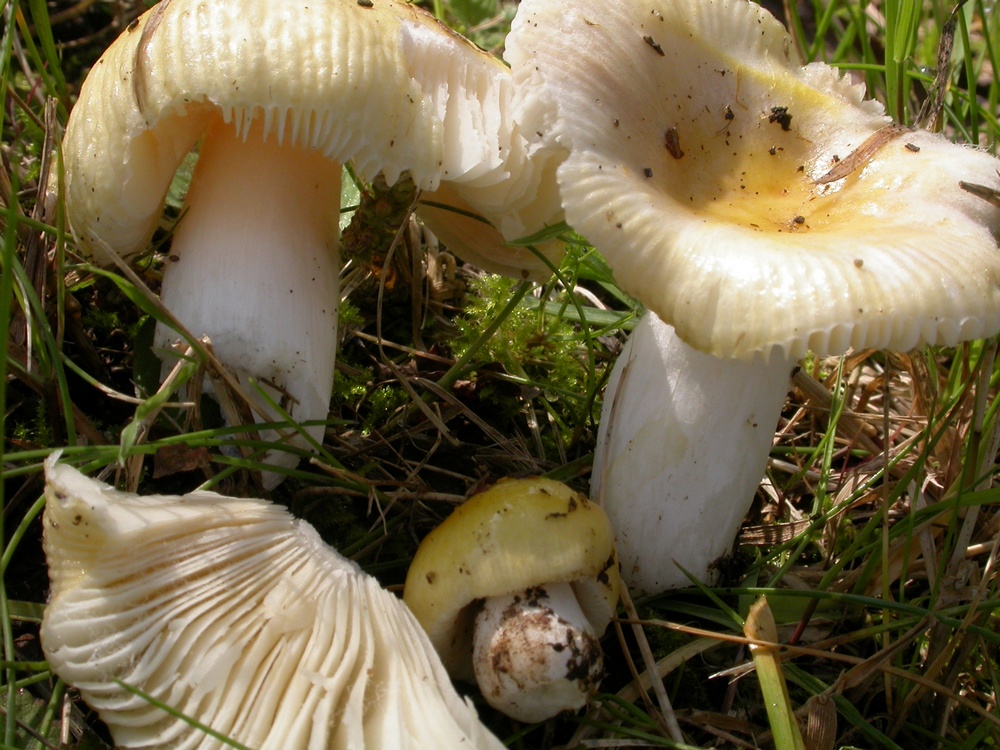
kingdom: Fungi
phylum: Basidiomycota
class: Agaricomycetes
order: Russulales
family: Russulaceae
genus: Russula
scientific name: Russula solaris
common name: sol-skørhat
